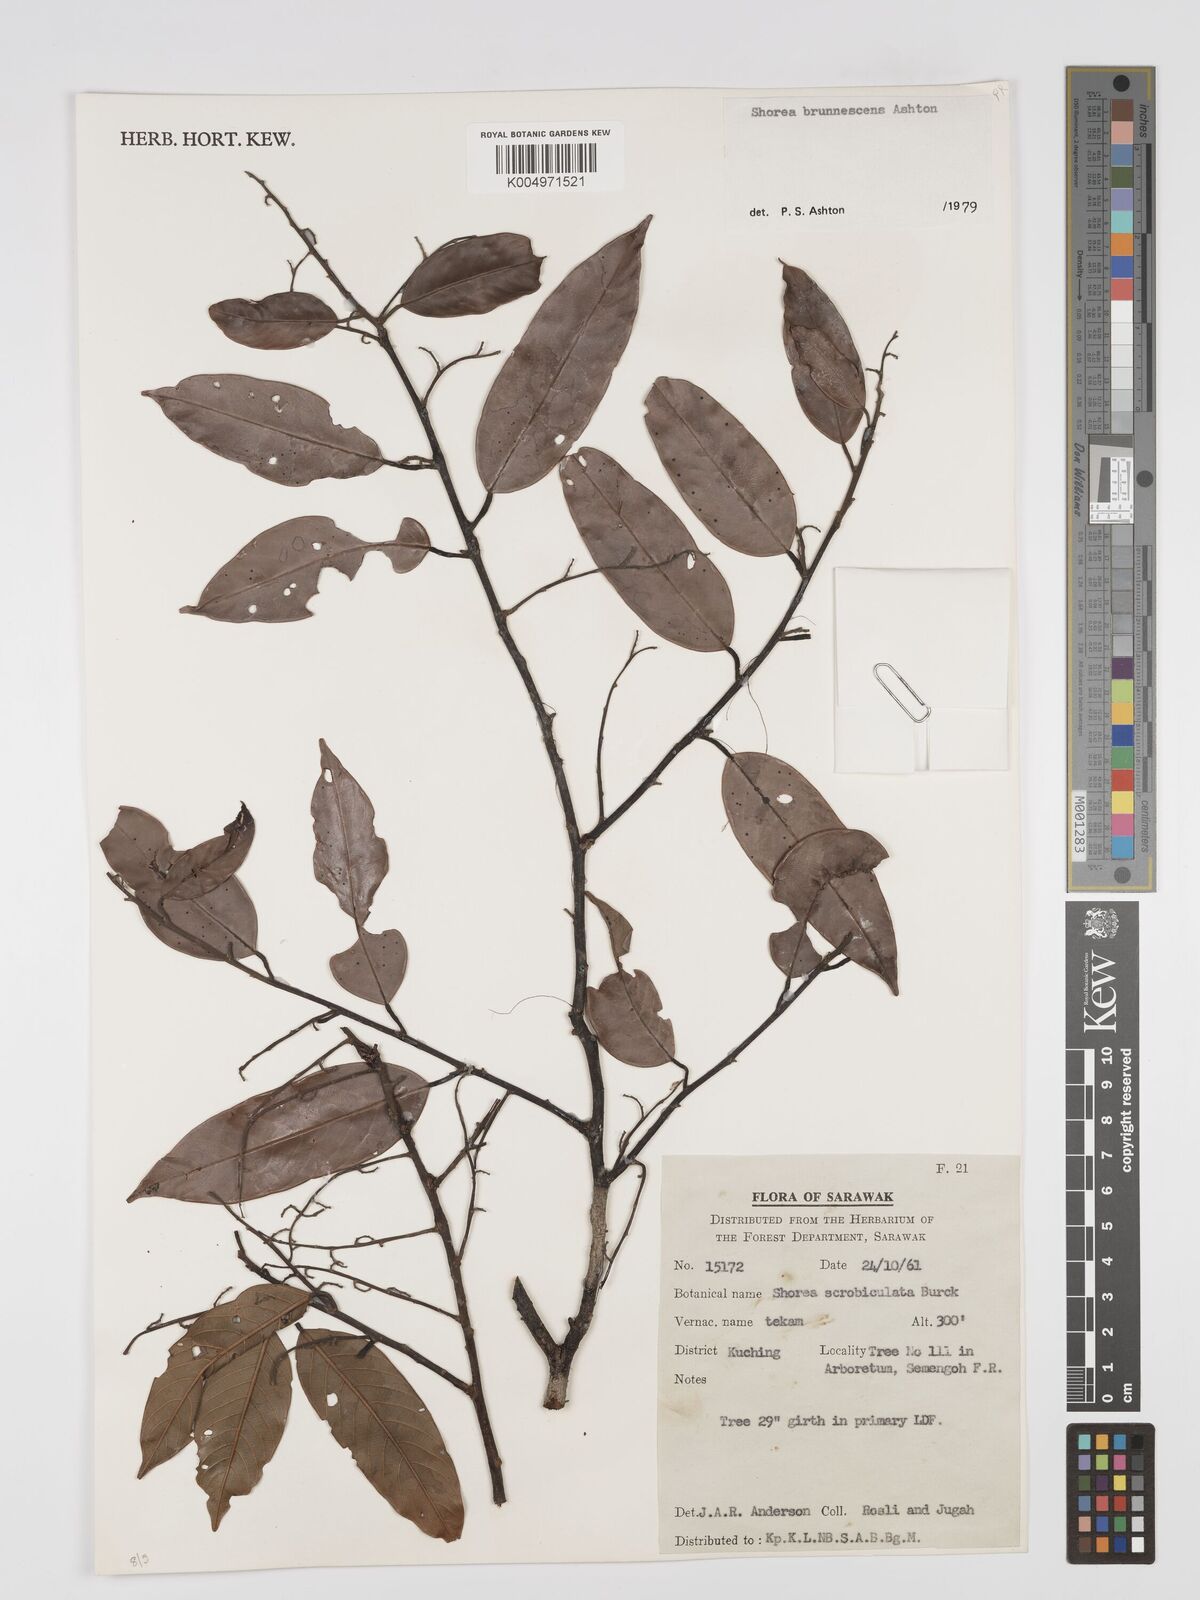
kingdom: Plantae
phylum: Tracheophyta
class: Magnoliopsida
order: Malvales
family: Dipterocarpaceae
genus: Shorea
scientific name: Shorea brunnescens
